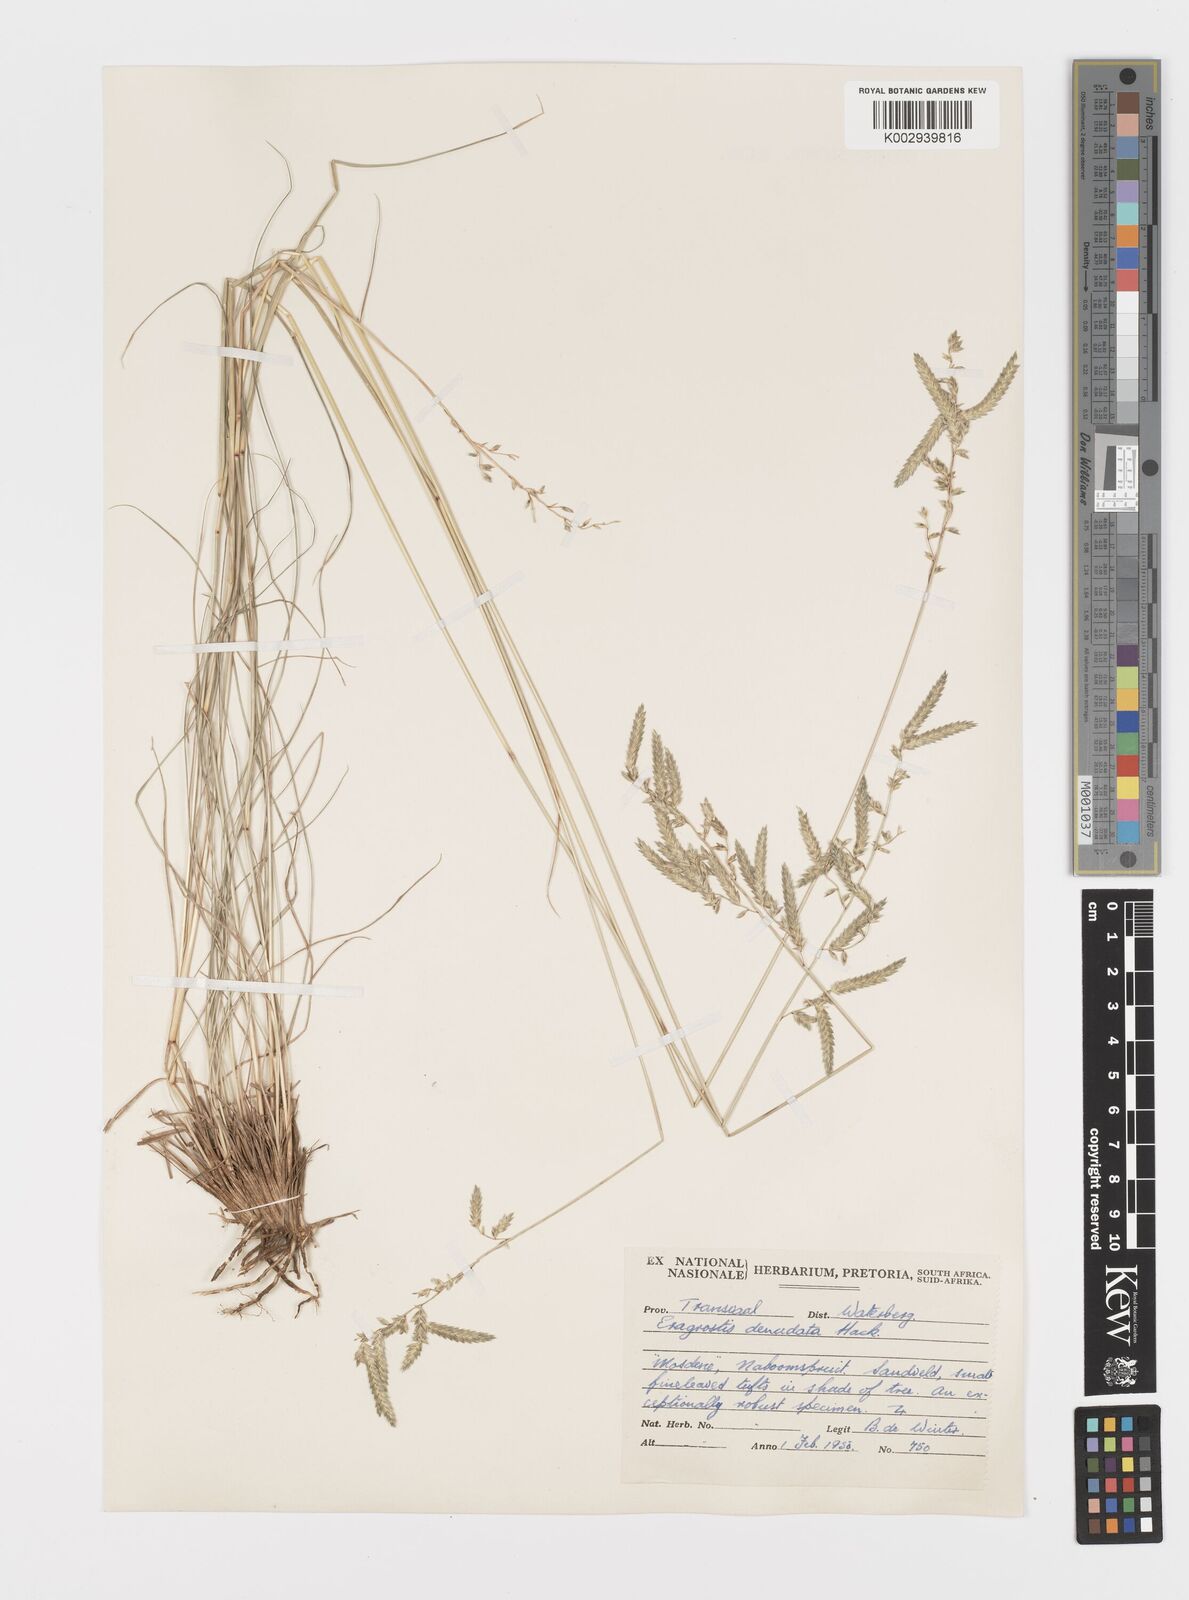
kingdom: Plantae
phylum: Tracheophyta
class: Liliopsida
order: Poales
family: Poaceae
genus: Eragrostis
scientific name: Eragrostis nindensis
